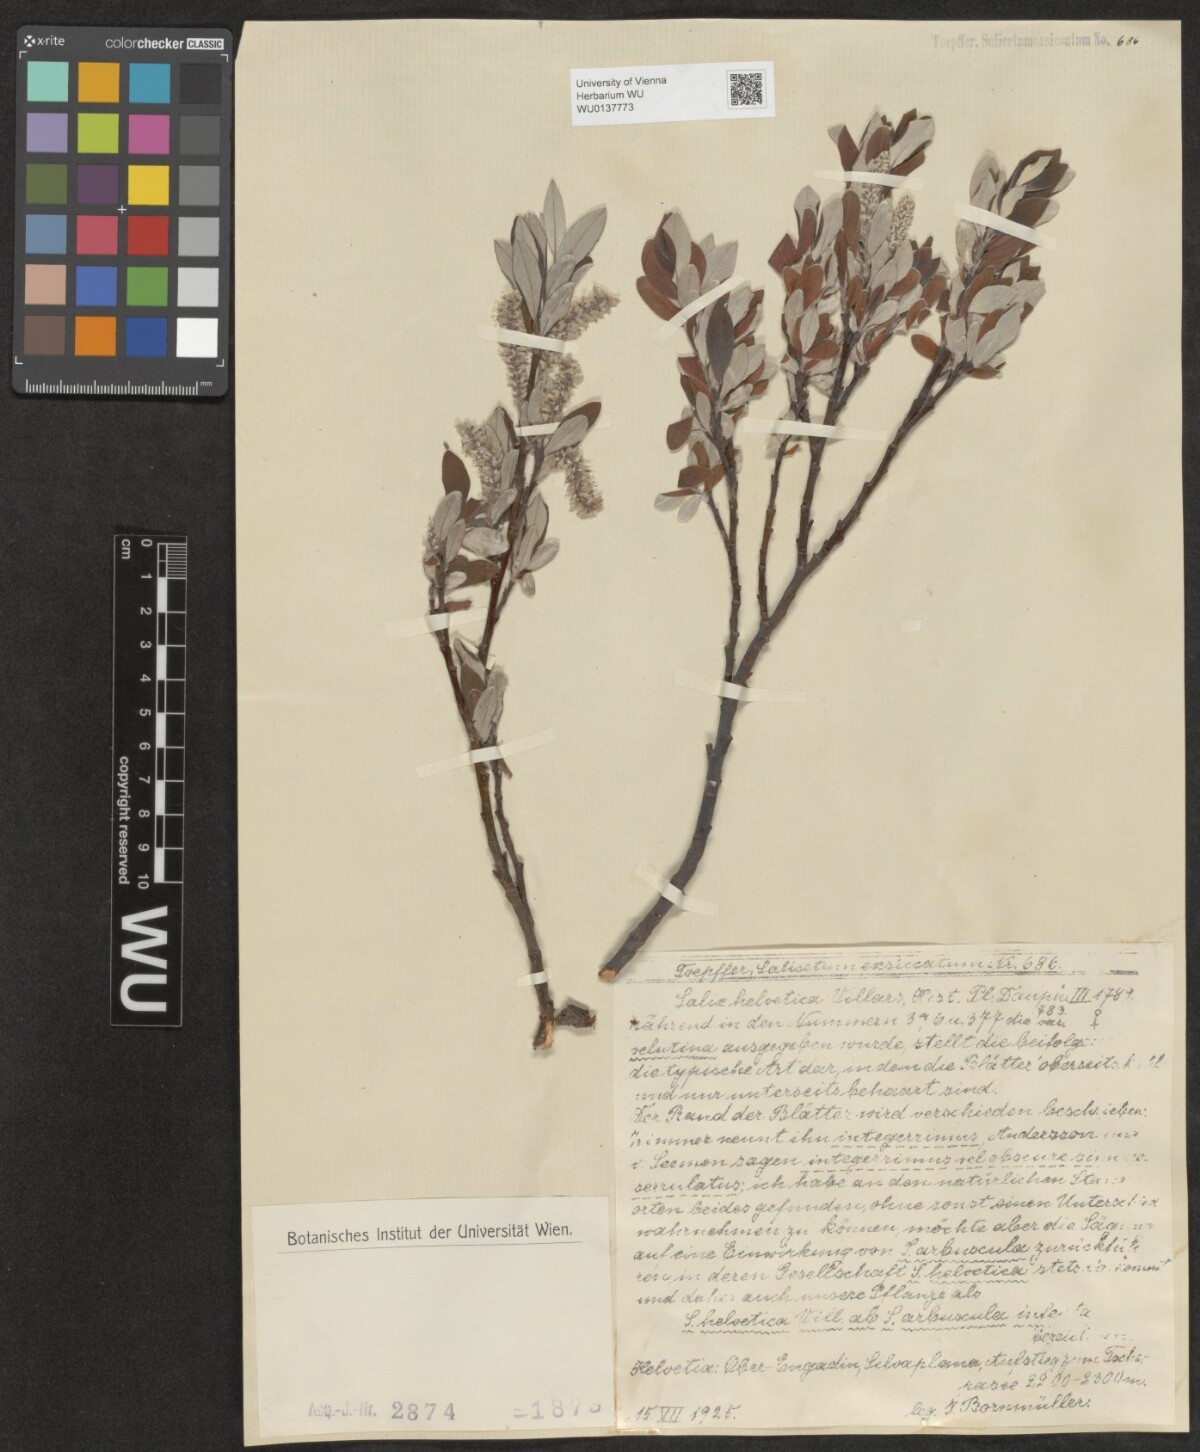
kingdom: Plantae
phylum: Tracheophyta
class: Magnoliopsida
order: Malpighiales
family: Salicaceae
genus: Salix
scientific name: Salix helvetica
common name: Swiss willow
